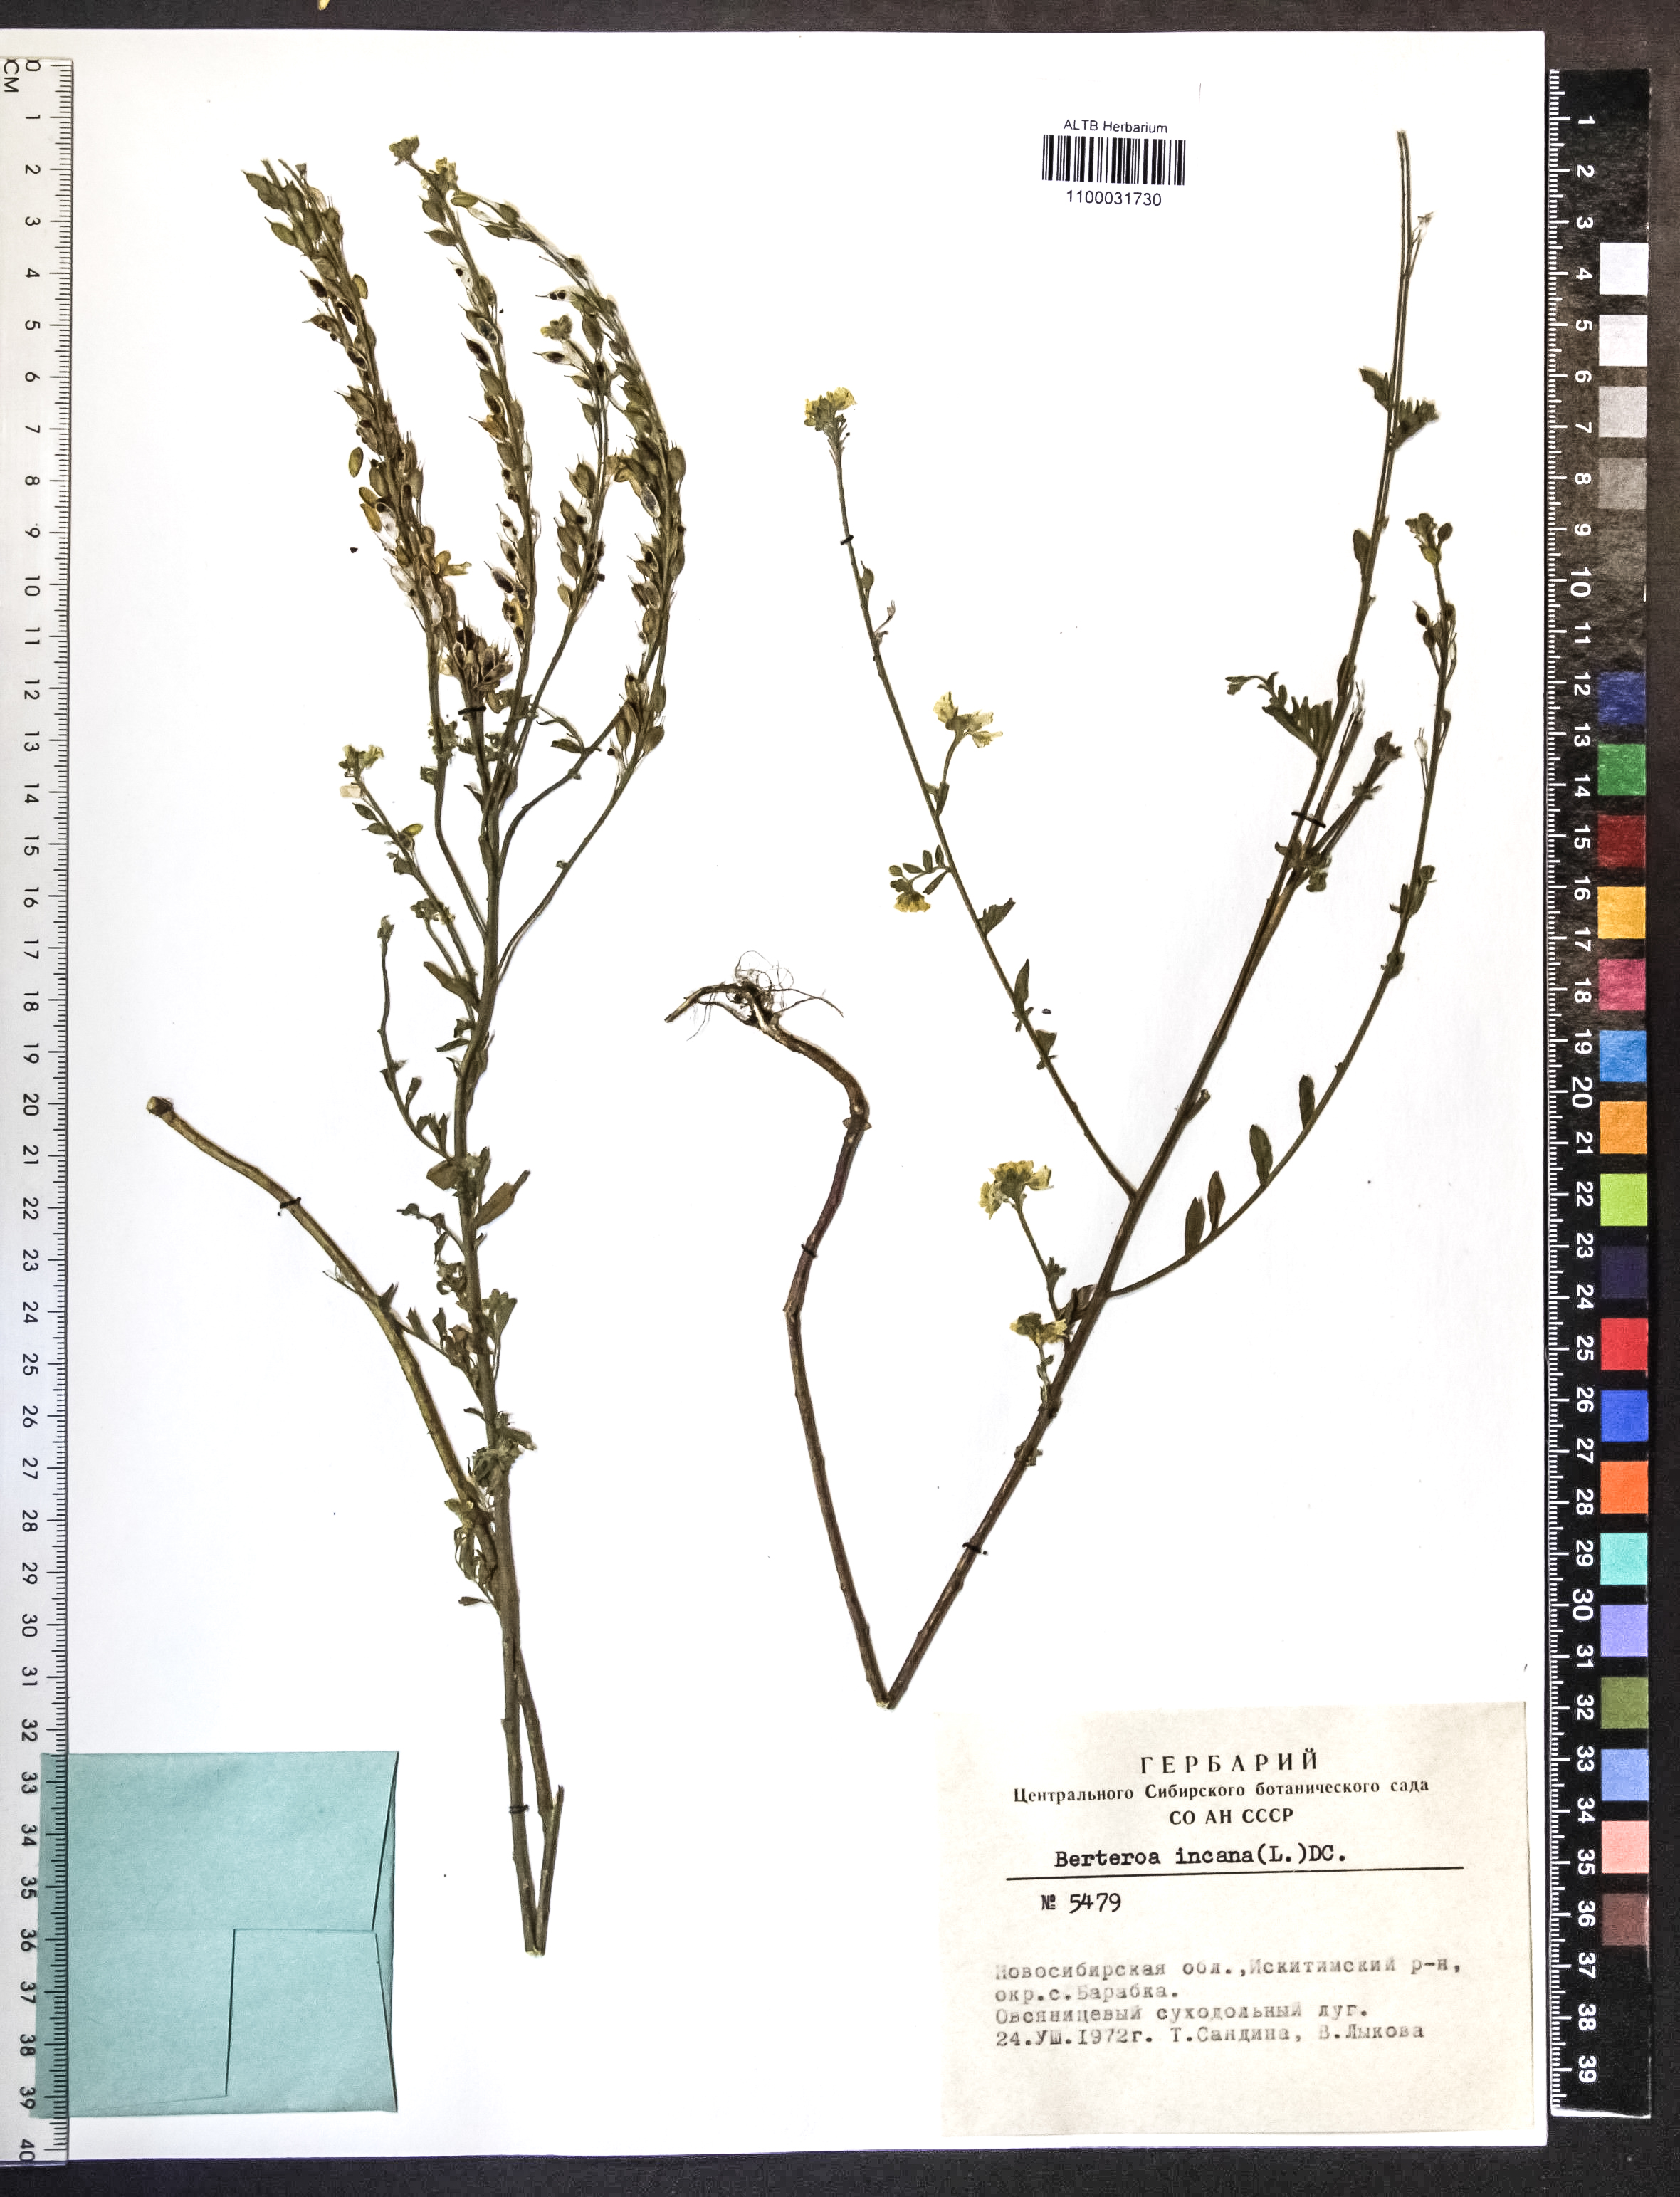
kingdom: Plantae
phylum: Tracheophyta
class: Magnoliopsida
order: Brassicales
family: Brassicaceae
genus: Berteroa
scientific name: Berteroa incana
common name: Hoary alison
